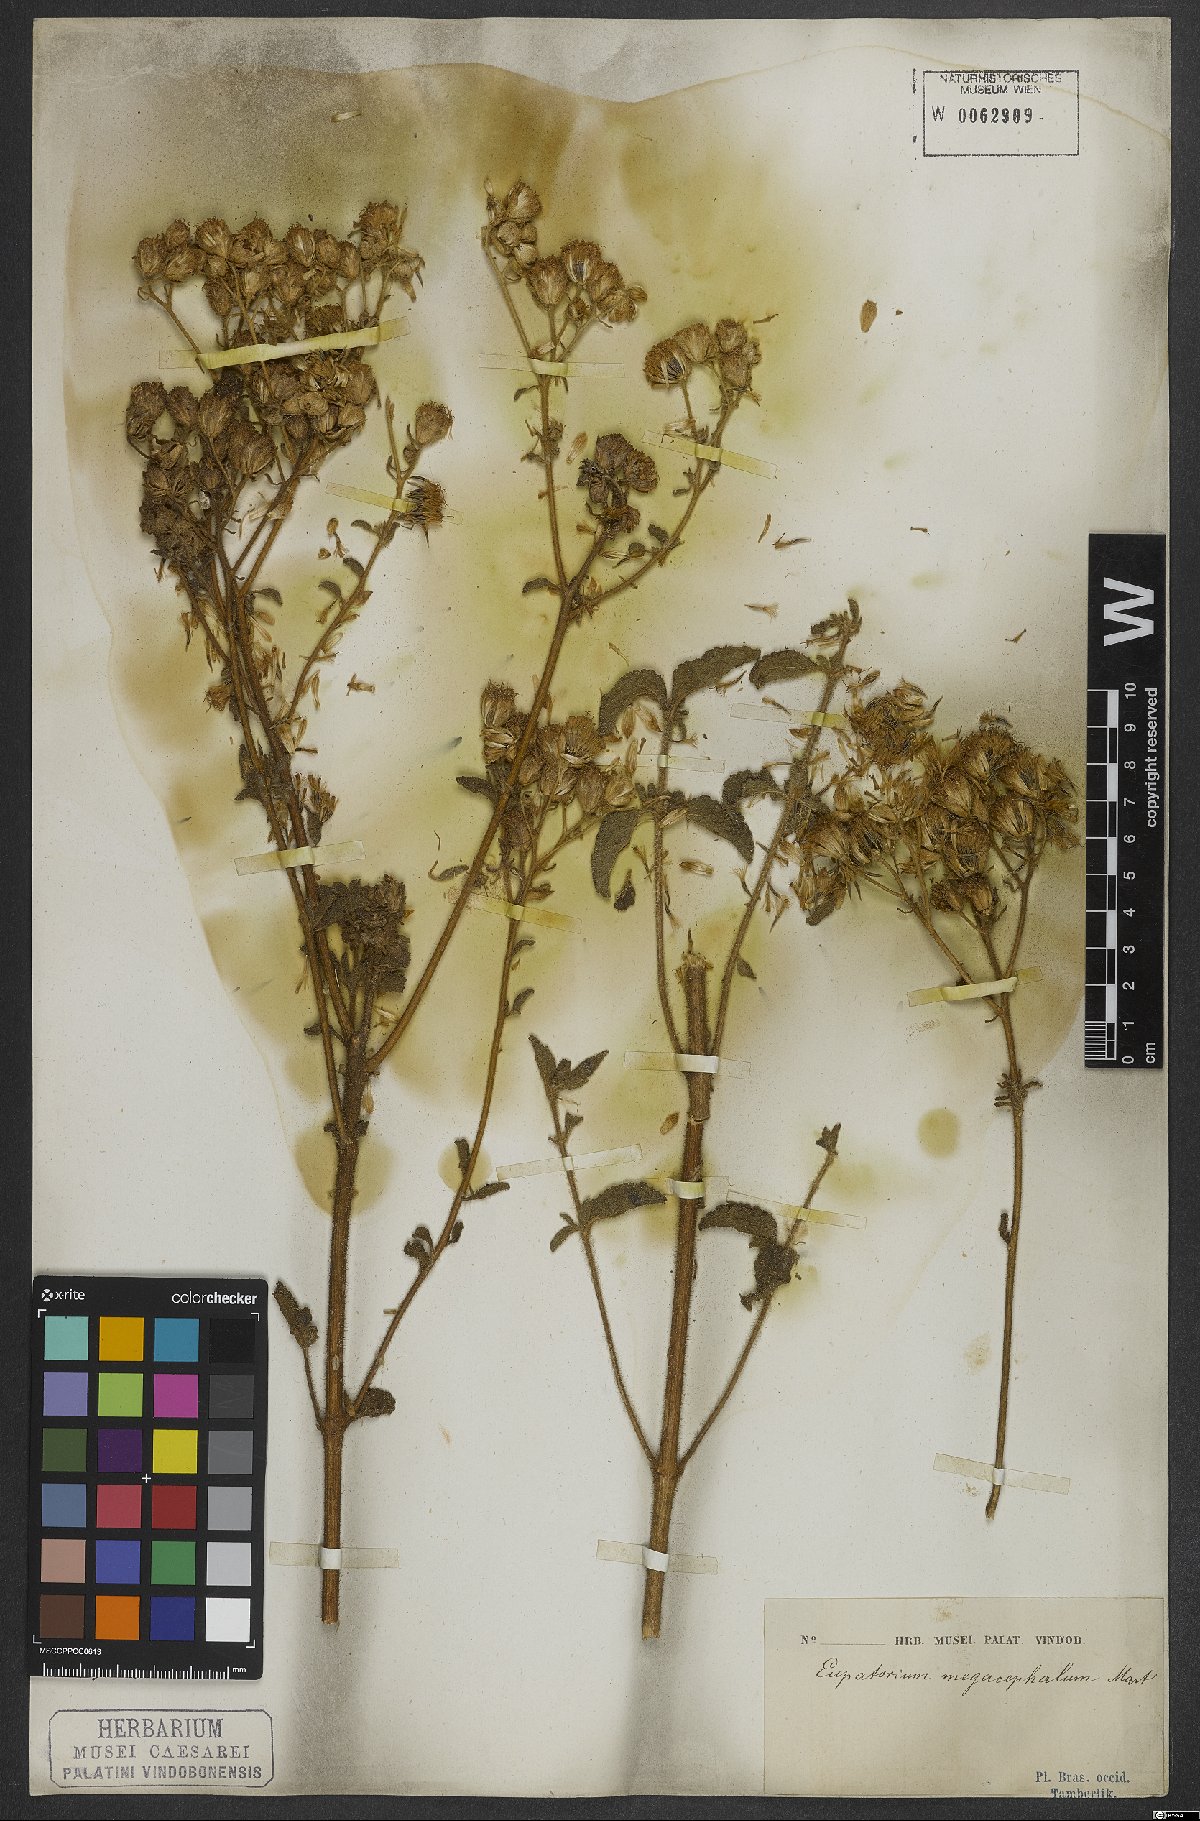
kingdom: Plantae
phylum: Tracheophyta
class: Magnoliopsida
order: Asterales
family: Asteraceae
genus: Campuloclinium
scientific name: Campuloclinium megacephalum
